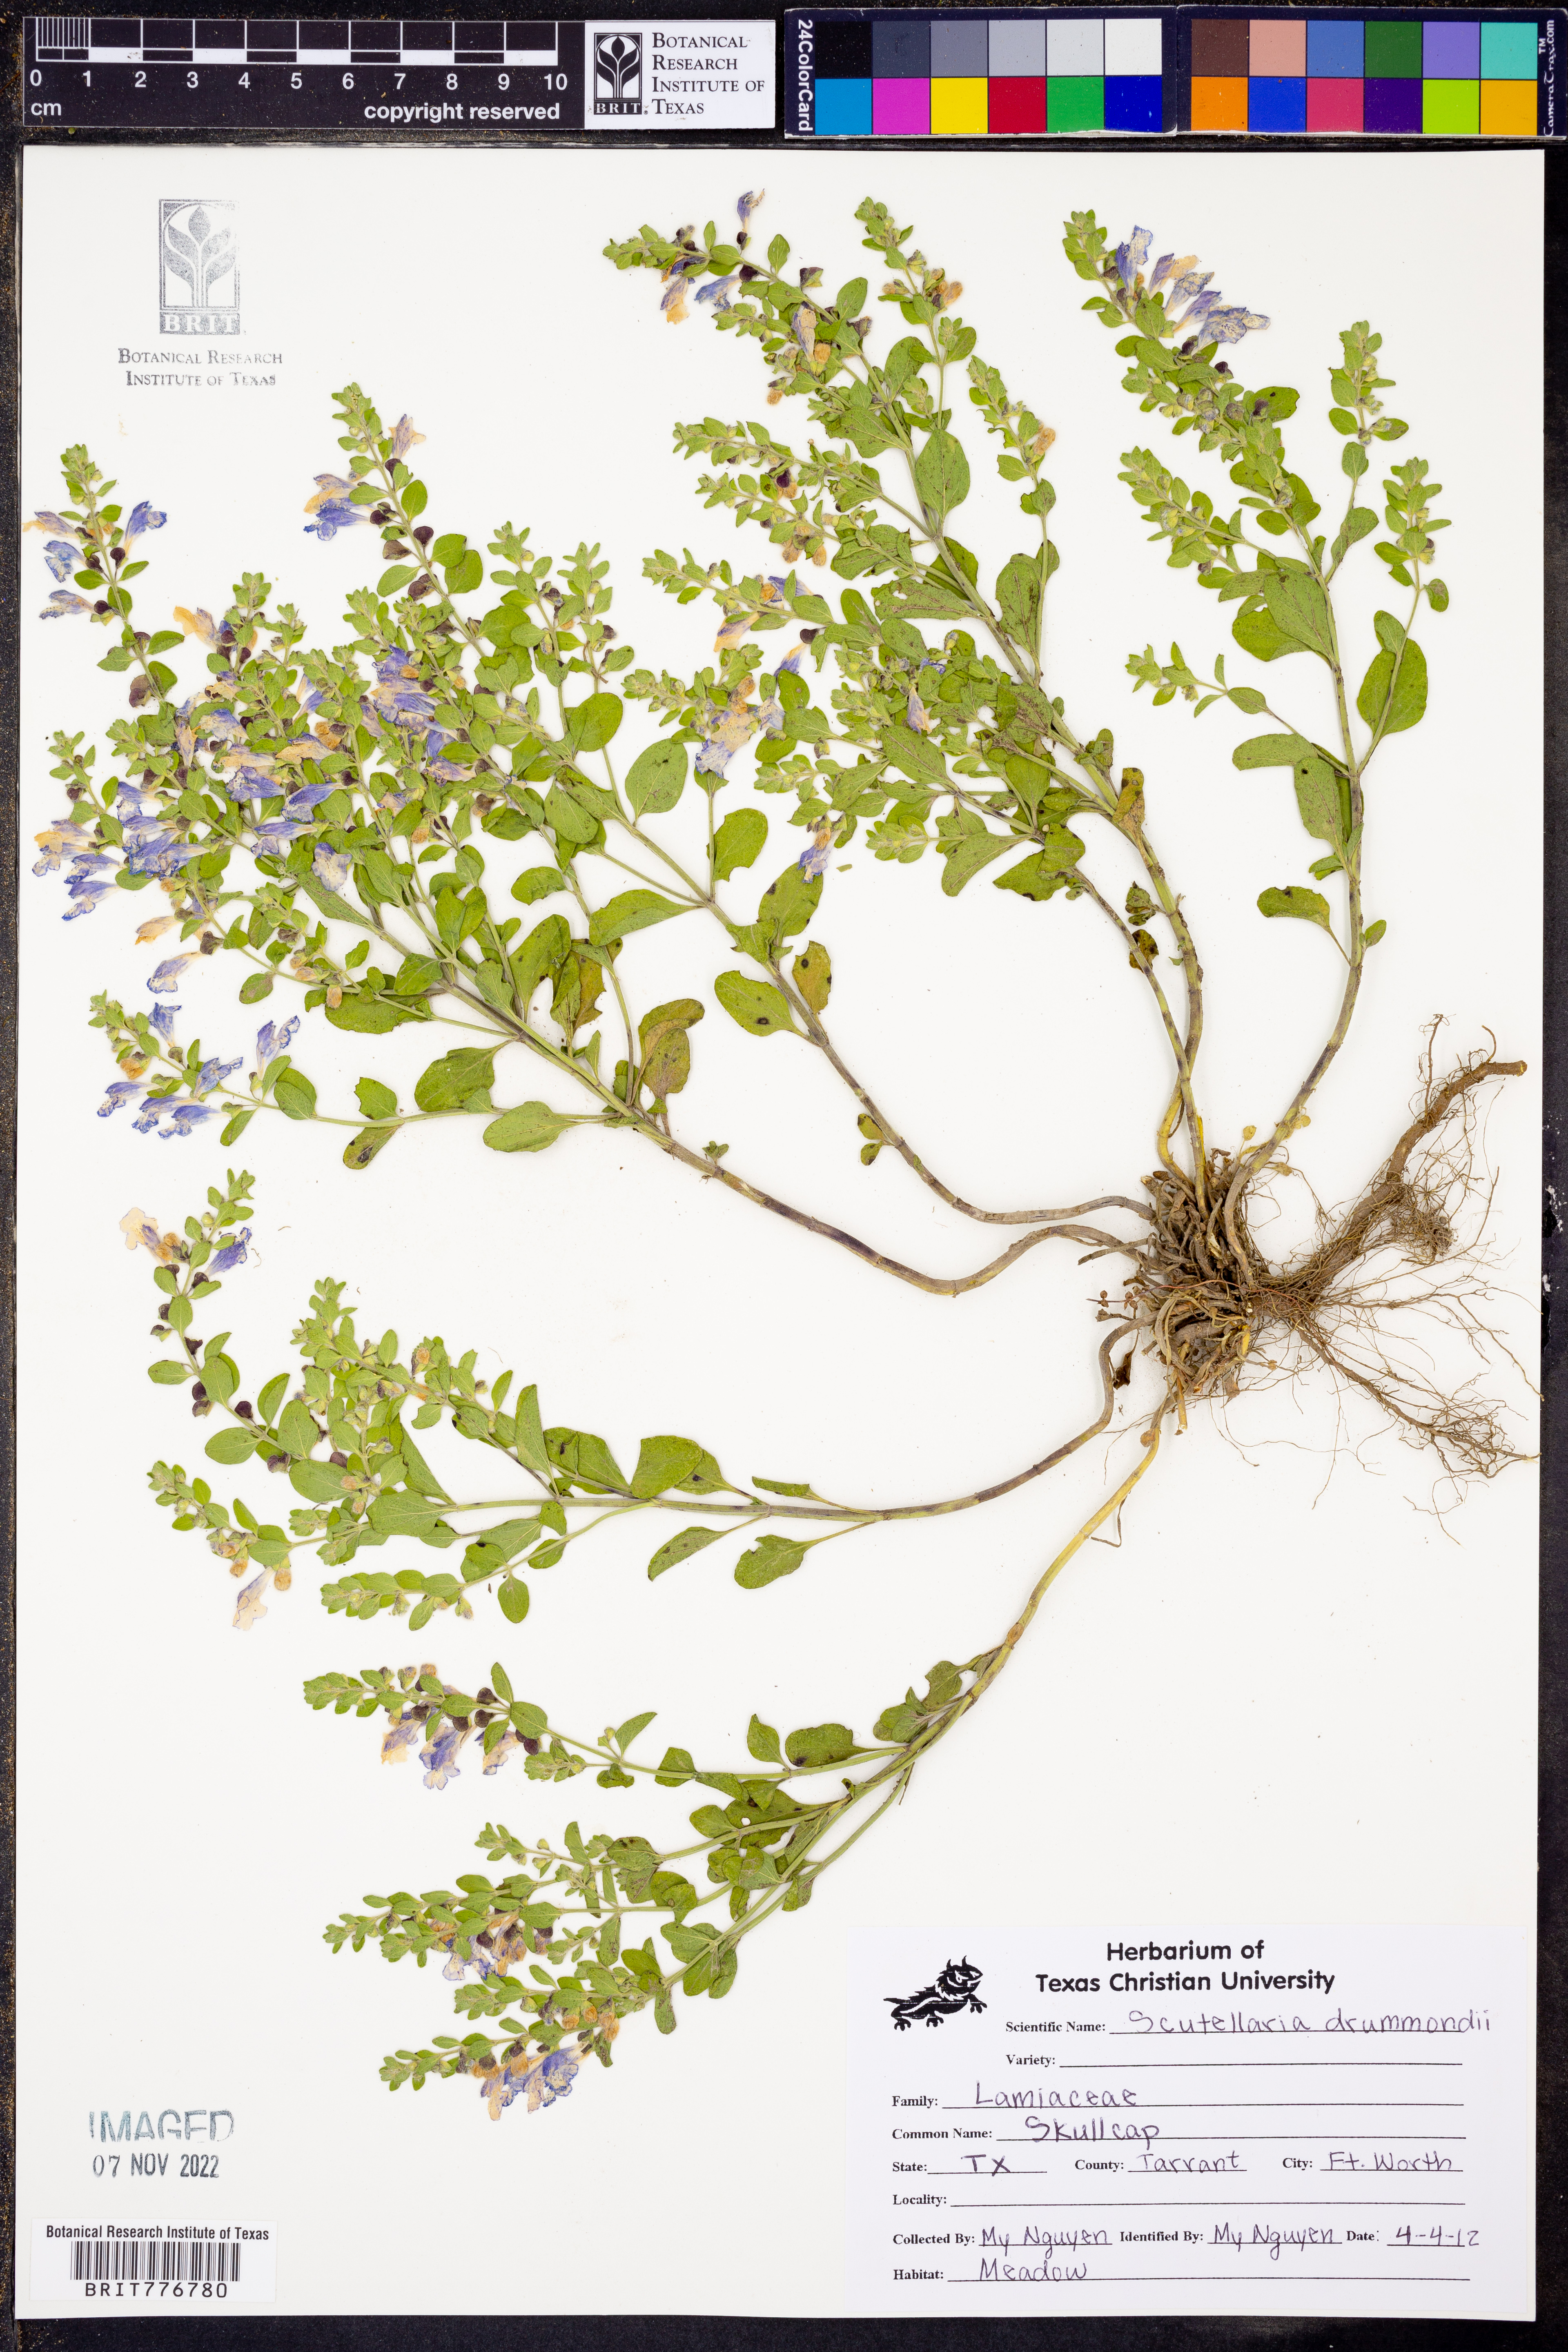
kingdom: Plantae
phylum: Tracheophyta
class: Magnoliopsida
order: Lamiales
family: Lamiaceae
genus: Scutellaria
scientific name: Scutellaria drummondii
